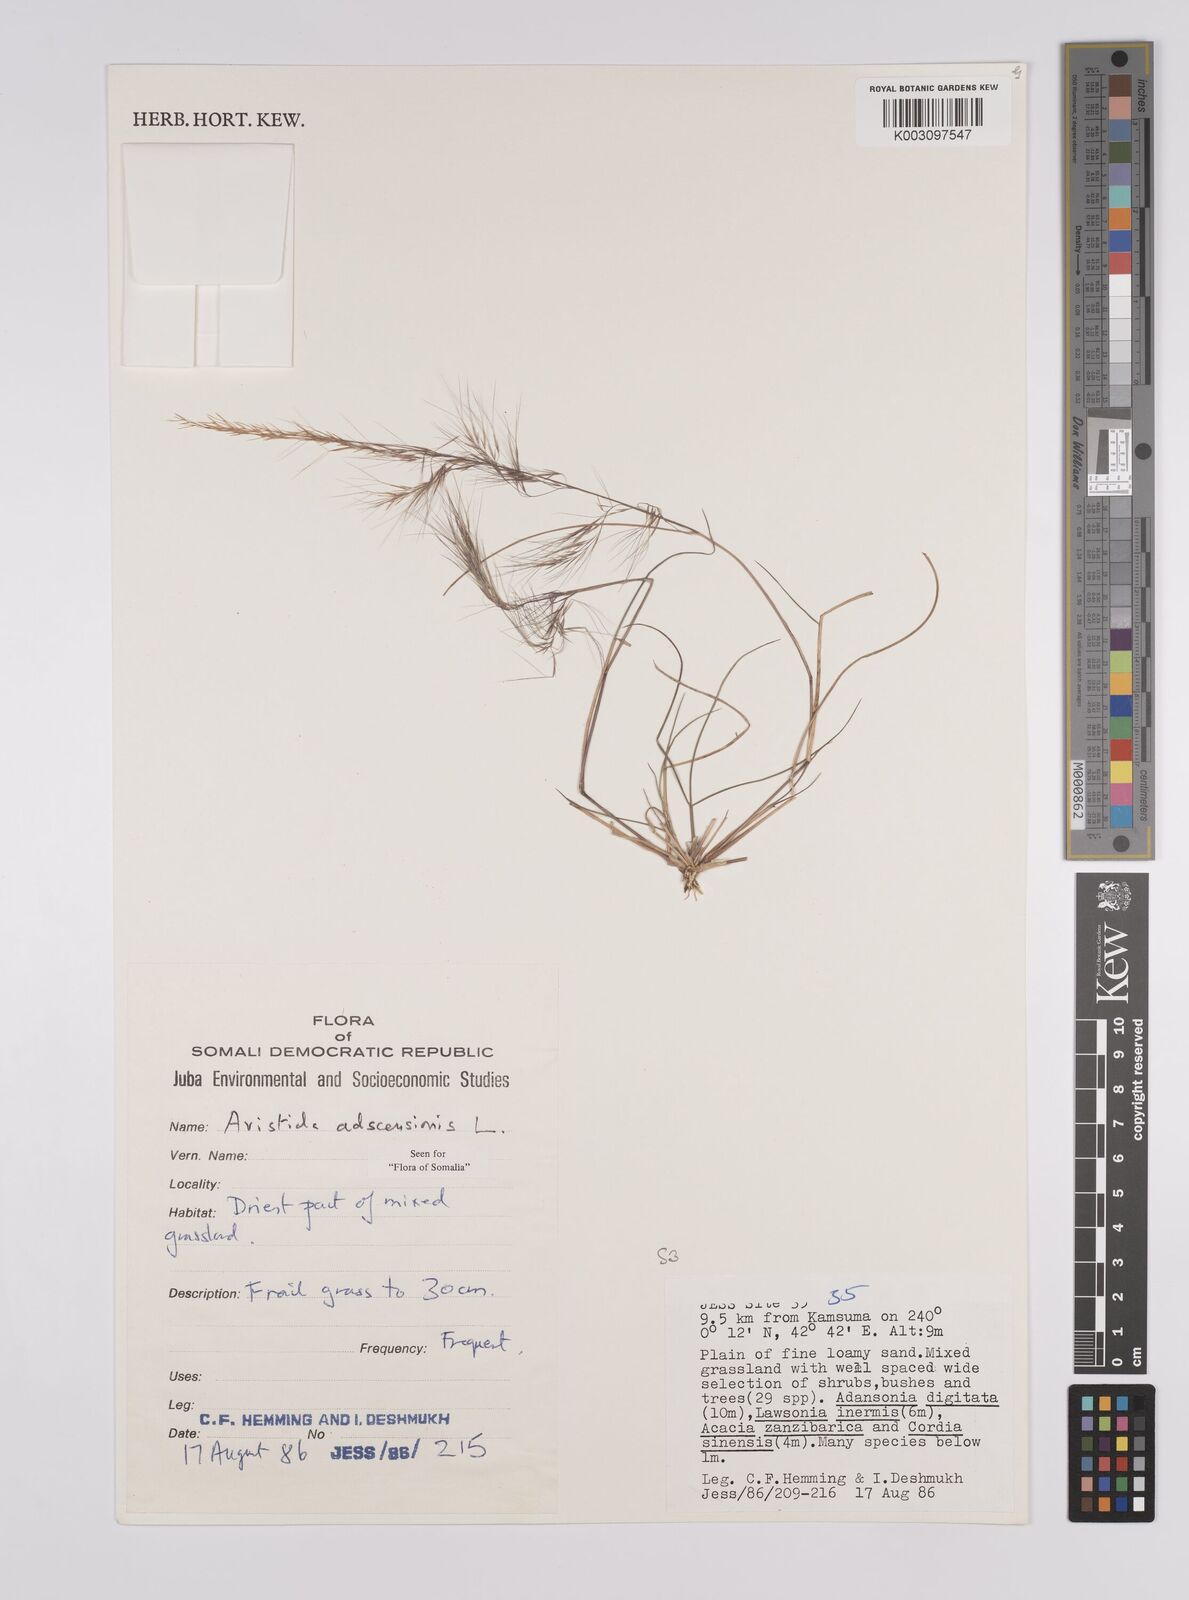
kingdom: Plantae
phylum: Tracheophyta
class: Liliopsida
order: Poales
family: Poaceae
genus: Aristida
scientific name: Aristida laevis
